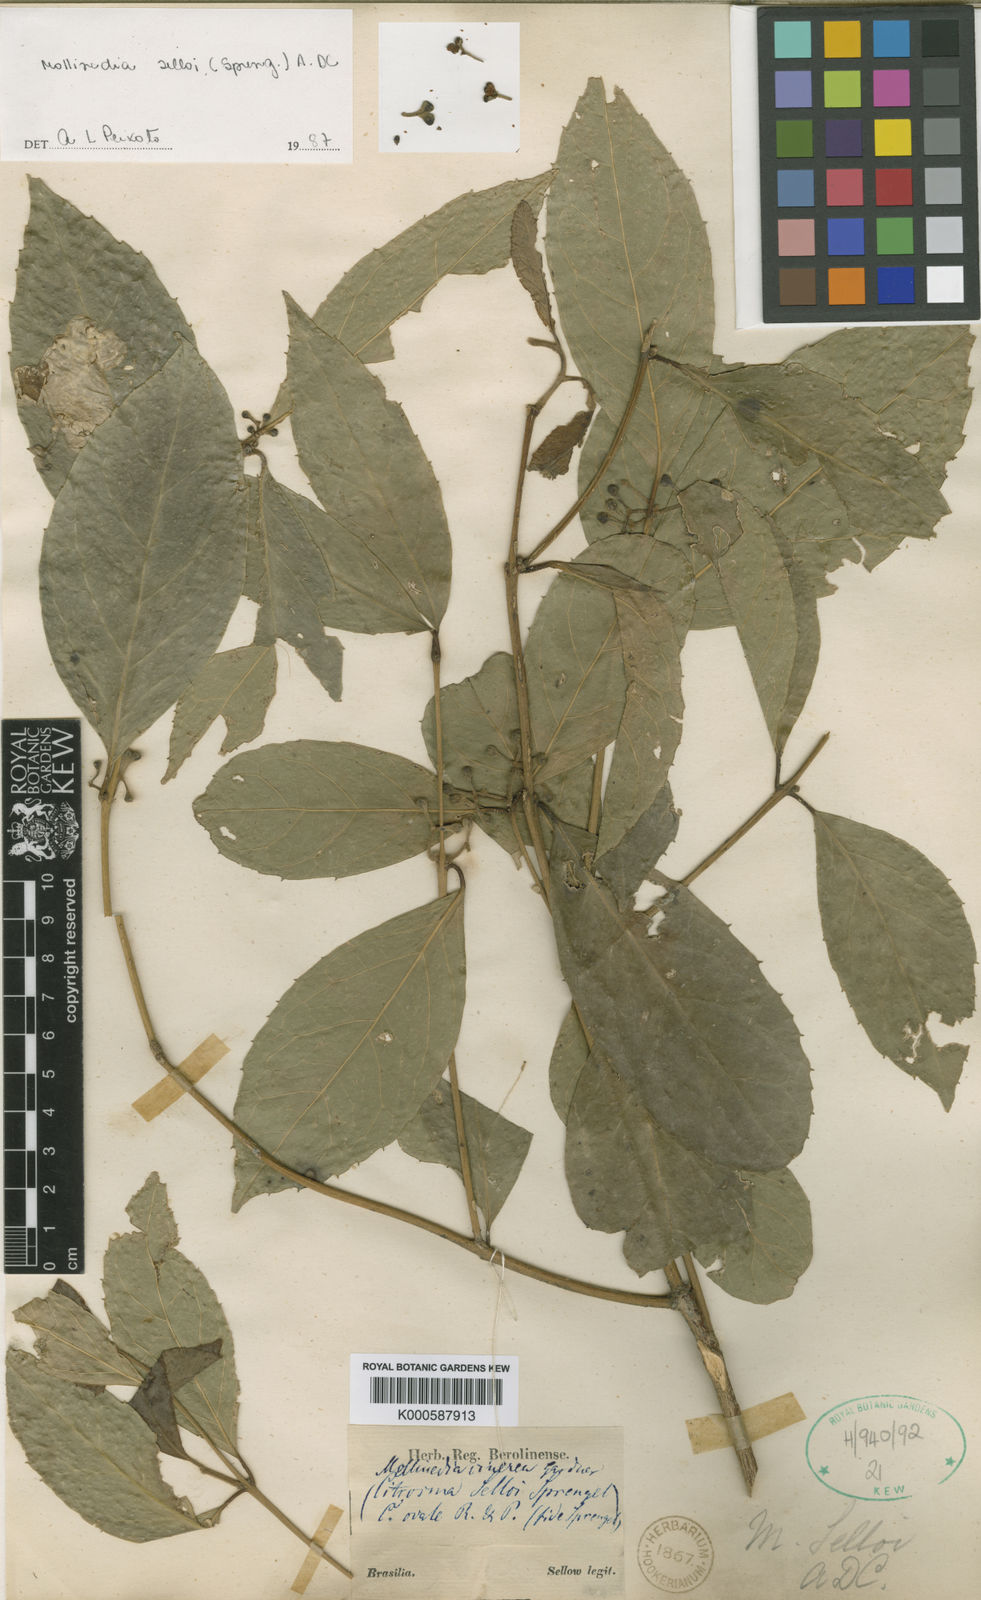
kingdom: Plantae
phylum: Tracheophyta
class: Magnoliopsida
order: Laurales
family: Monimiaceae
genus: Mollinedia
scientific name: Mollinedia ovata
